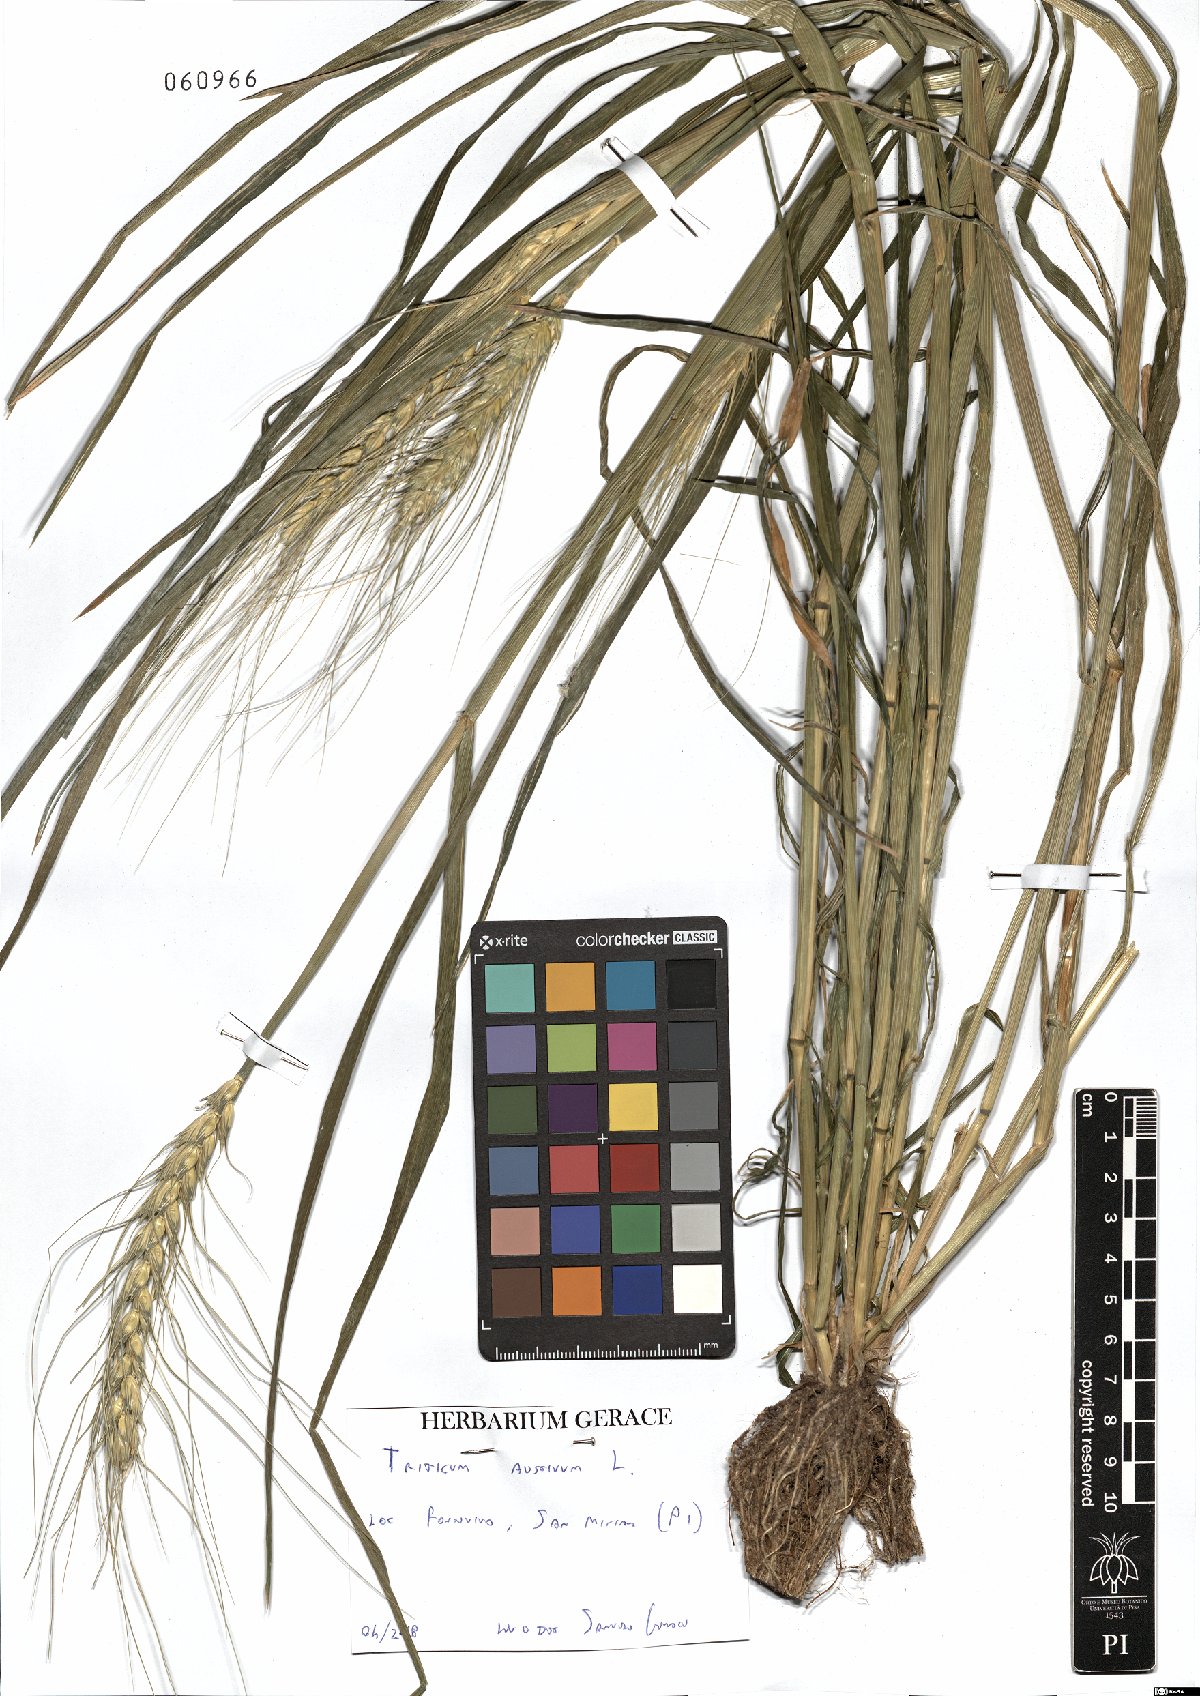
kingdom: Plantae
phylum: Tracheophyta
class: Liliopsida
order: Poales
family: Poaceae
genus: Triticum
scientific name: Triticum aestivum
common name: Common wheat
